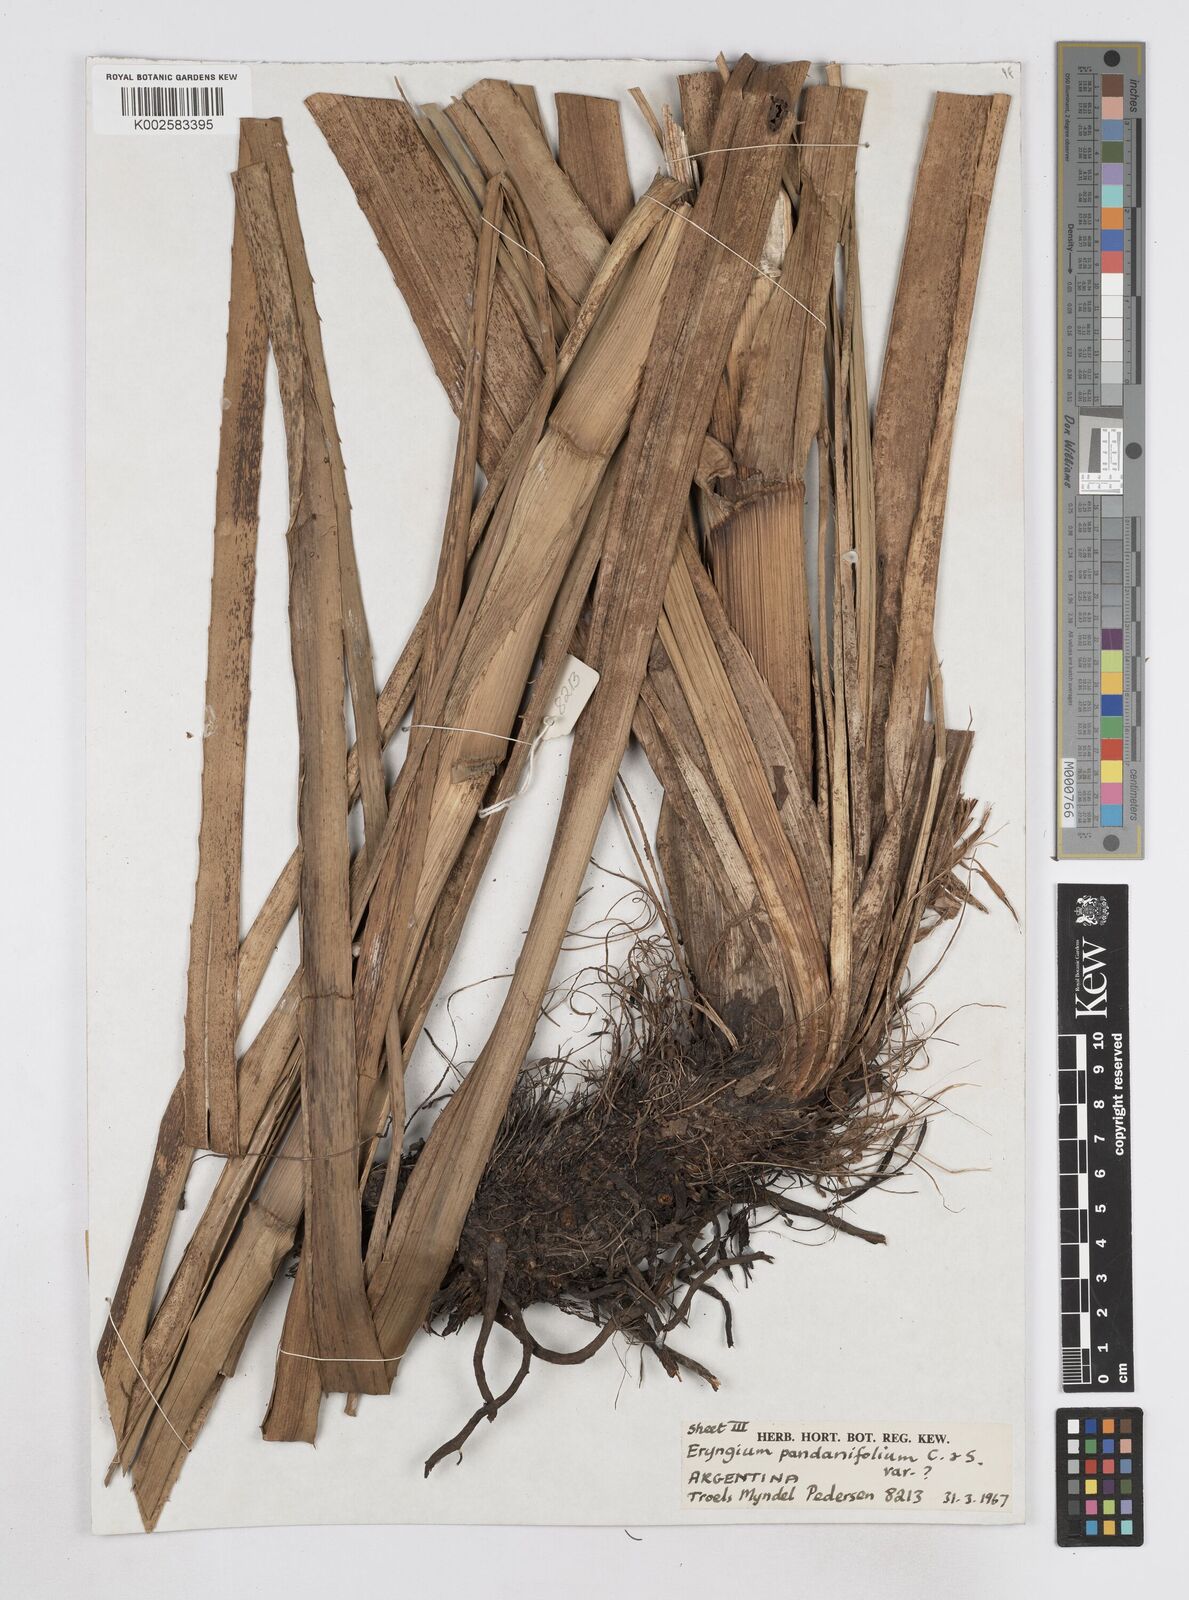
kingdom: Plantae
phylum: Tracheophyta
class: Magnoliopsida
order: Apiales
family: Apiaceae
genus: Eryngium
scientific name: Eryngium pandanifolium
